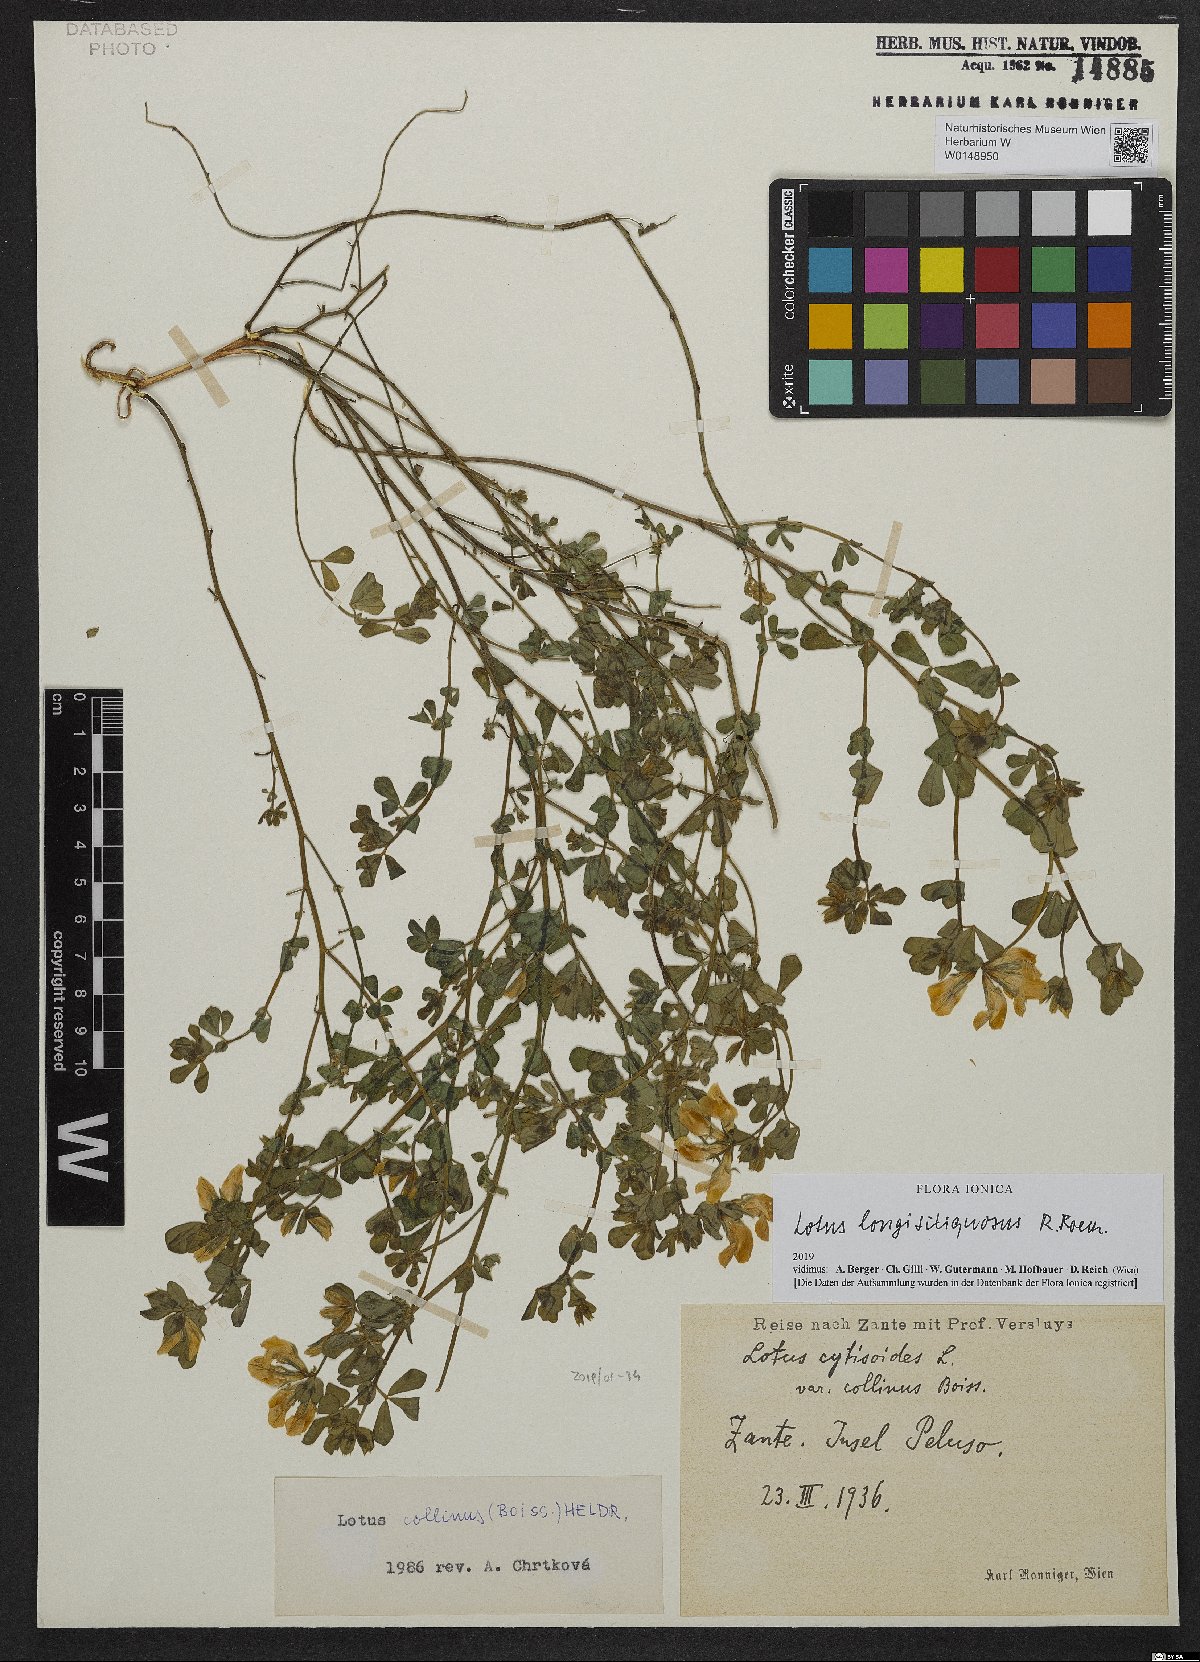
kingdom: Plantae
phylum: Tracheophyta
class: Magnoliopsida
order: Fabales
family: Fabaceae
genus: Lotus
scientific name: Lotus longisiliquosus
